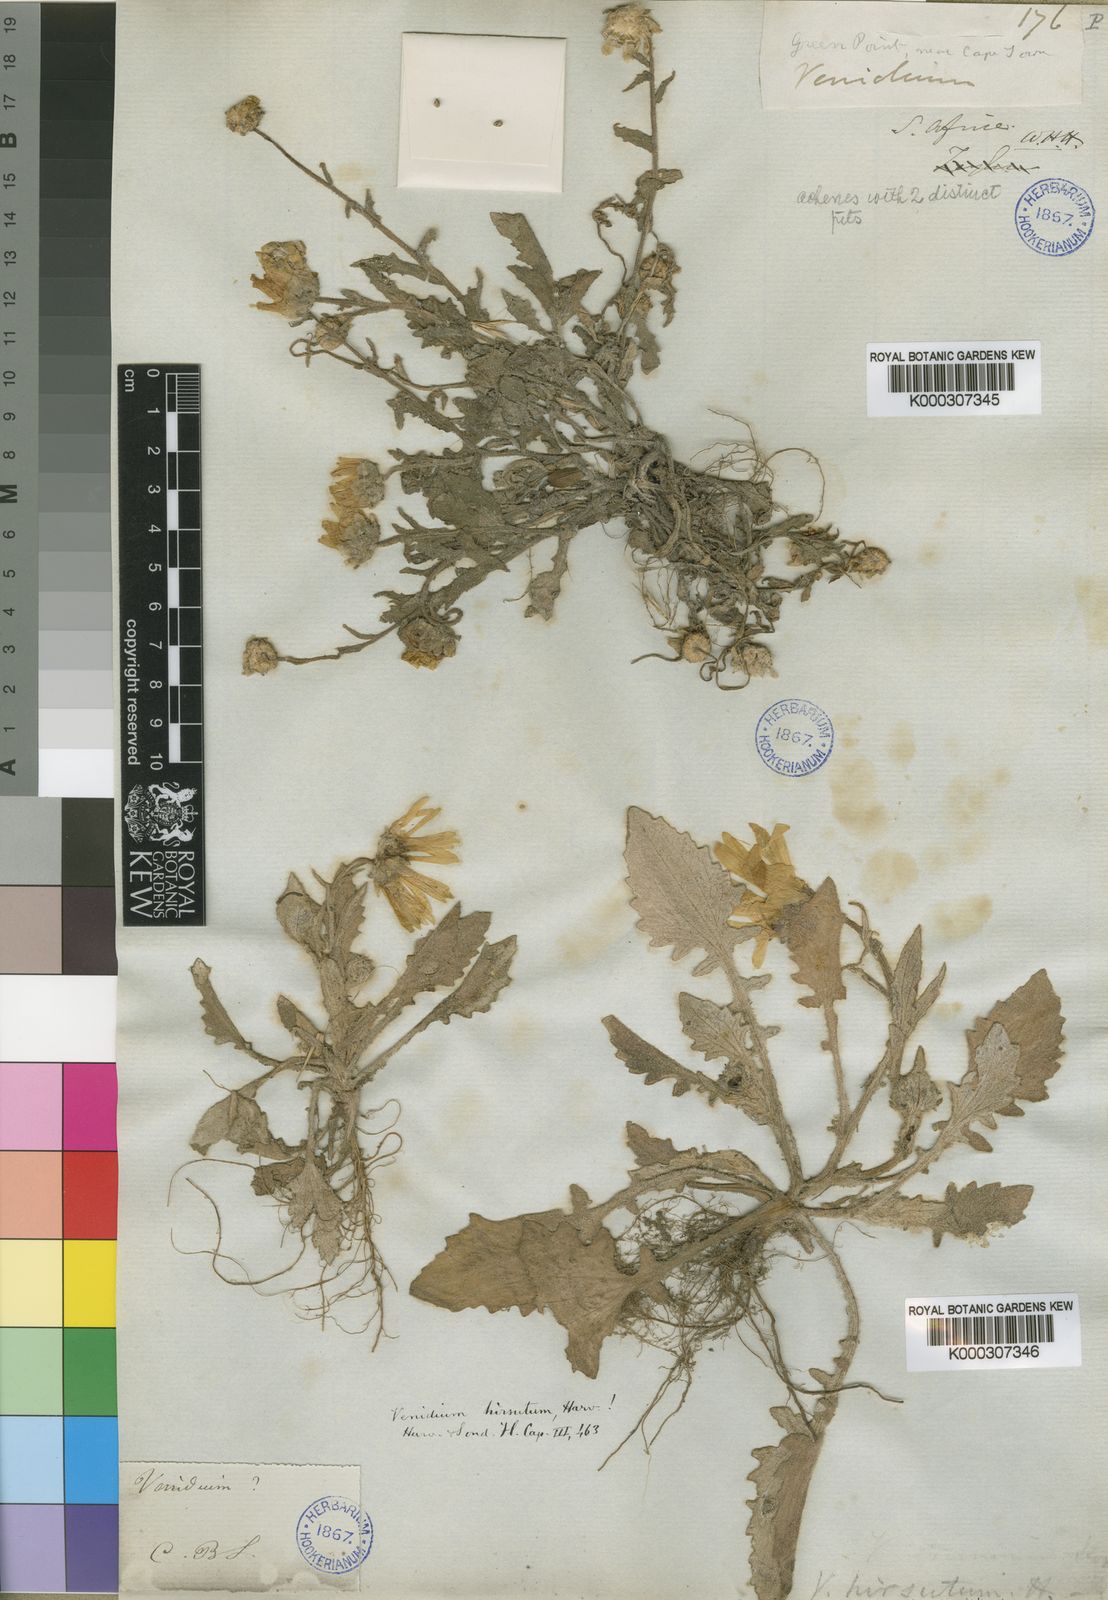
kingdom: Plantae
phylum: Tracheophyta
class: Magnoliopsida
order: Asterales
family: Asteraceae
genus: Arctotis
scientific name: Arctotis hirsuta
